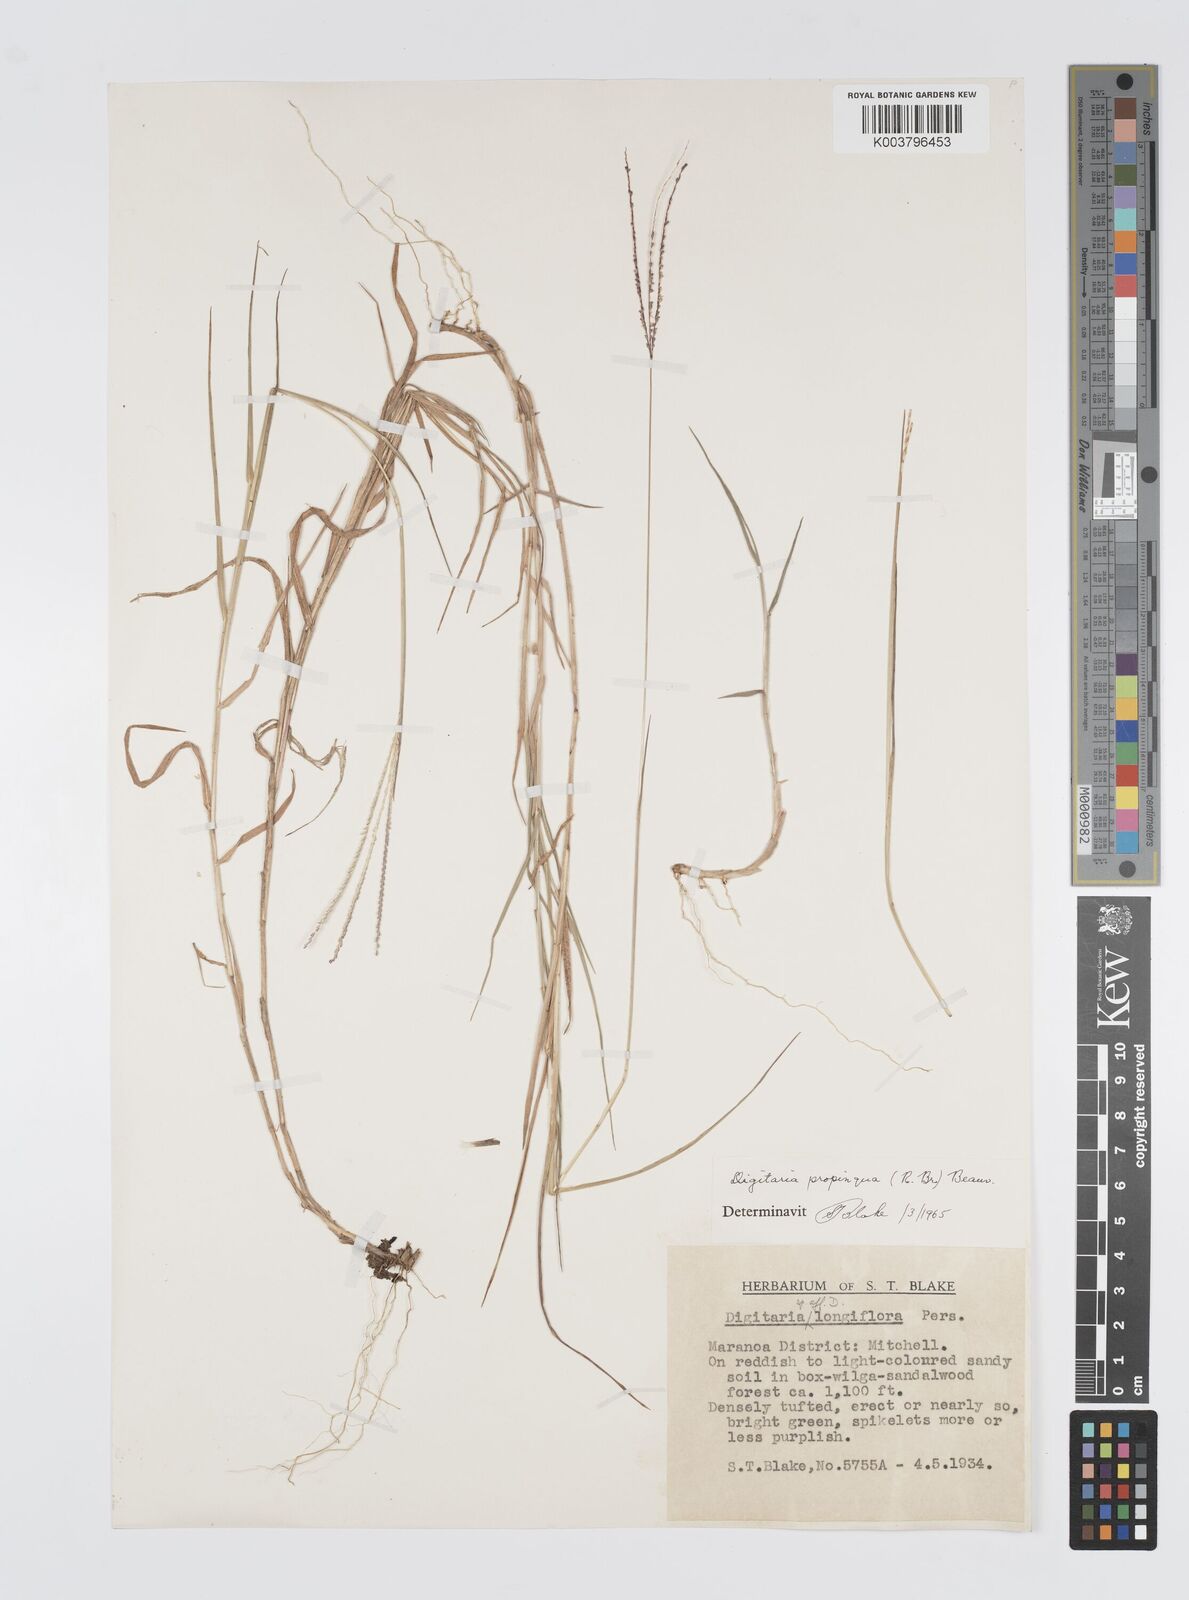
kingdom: Plantae
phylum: Tracheophyta
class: Liliopsida
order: Poales
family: Poaceae
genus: Digitaria
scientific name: Digitaria longiflora
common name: Wire crabgrass
